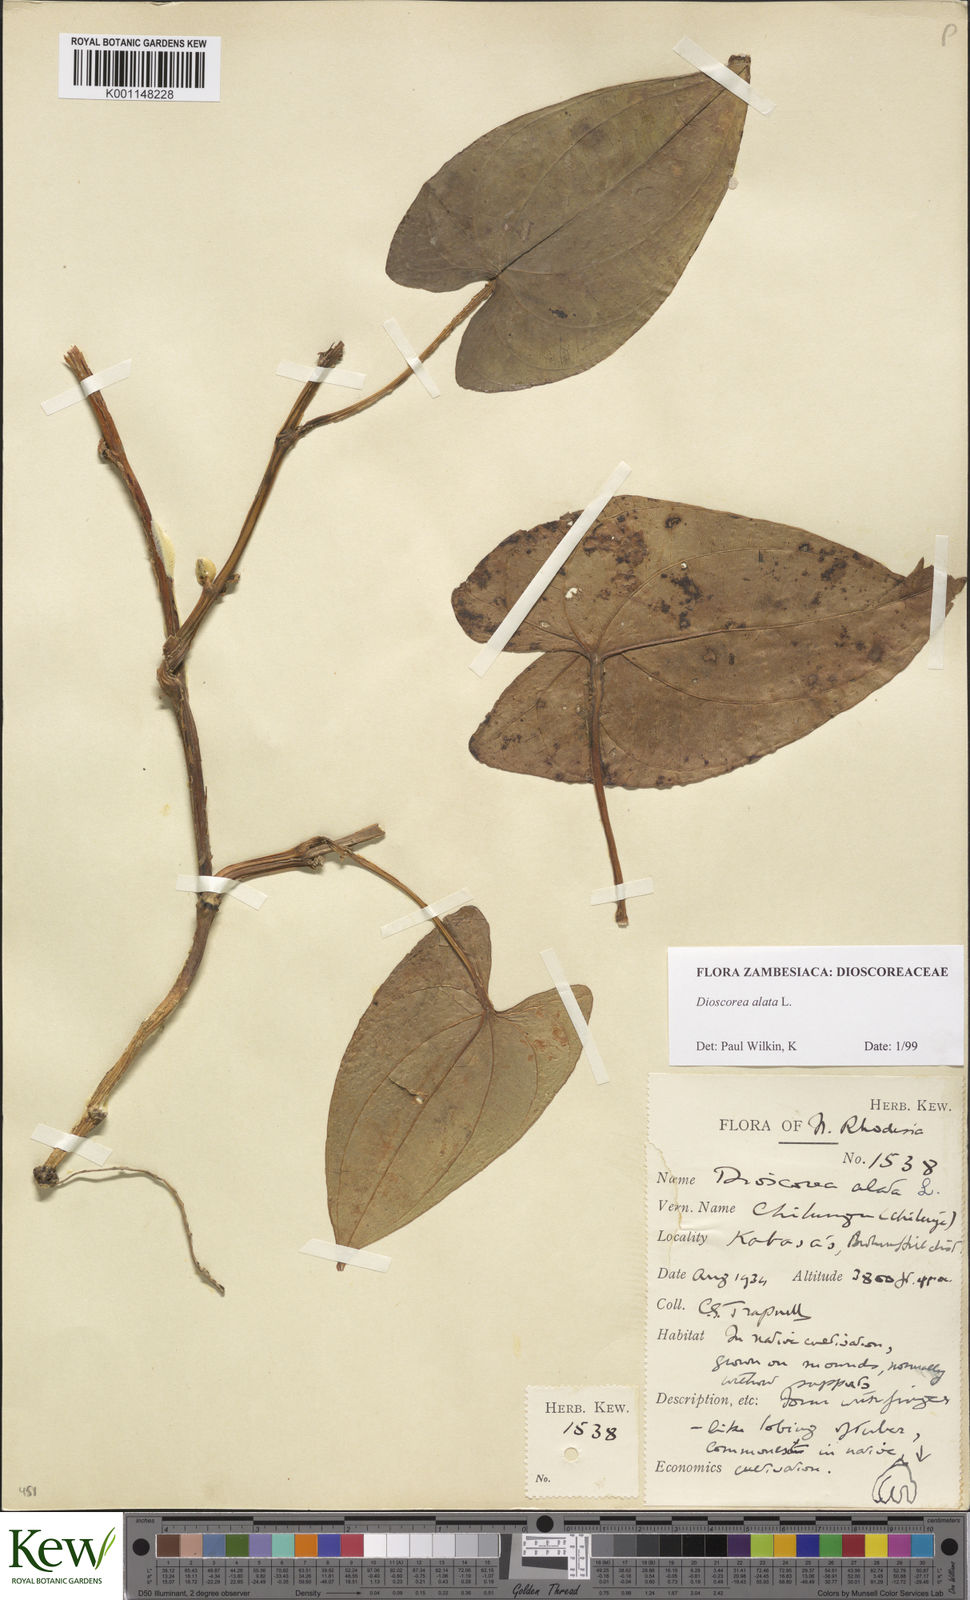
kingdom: Plantae
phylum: Tracheophyta
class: Liliopsida
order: Dioscoreales
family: Dioscoreaceae
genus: Dioscorea
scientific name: Dioscorea alata
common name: Water yam
